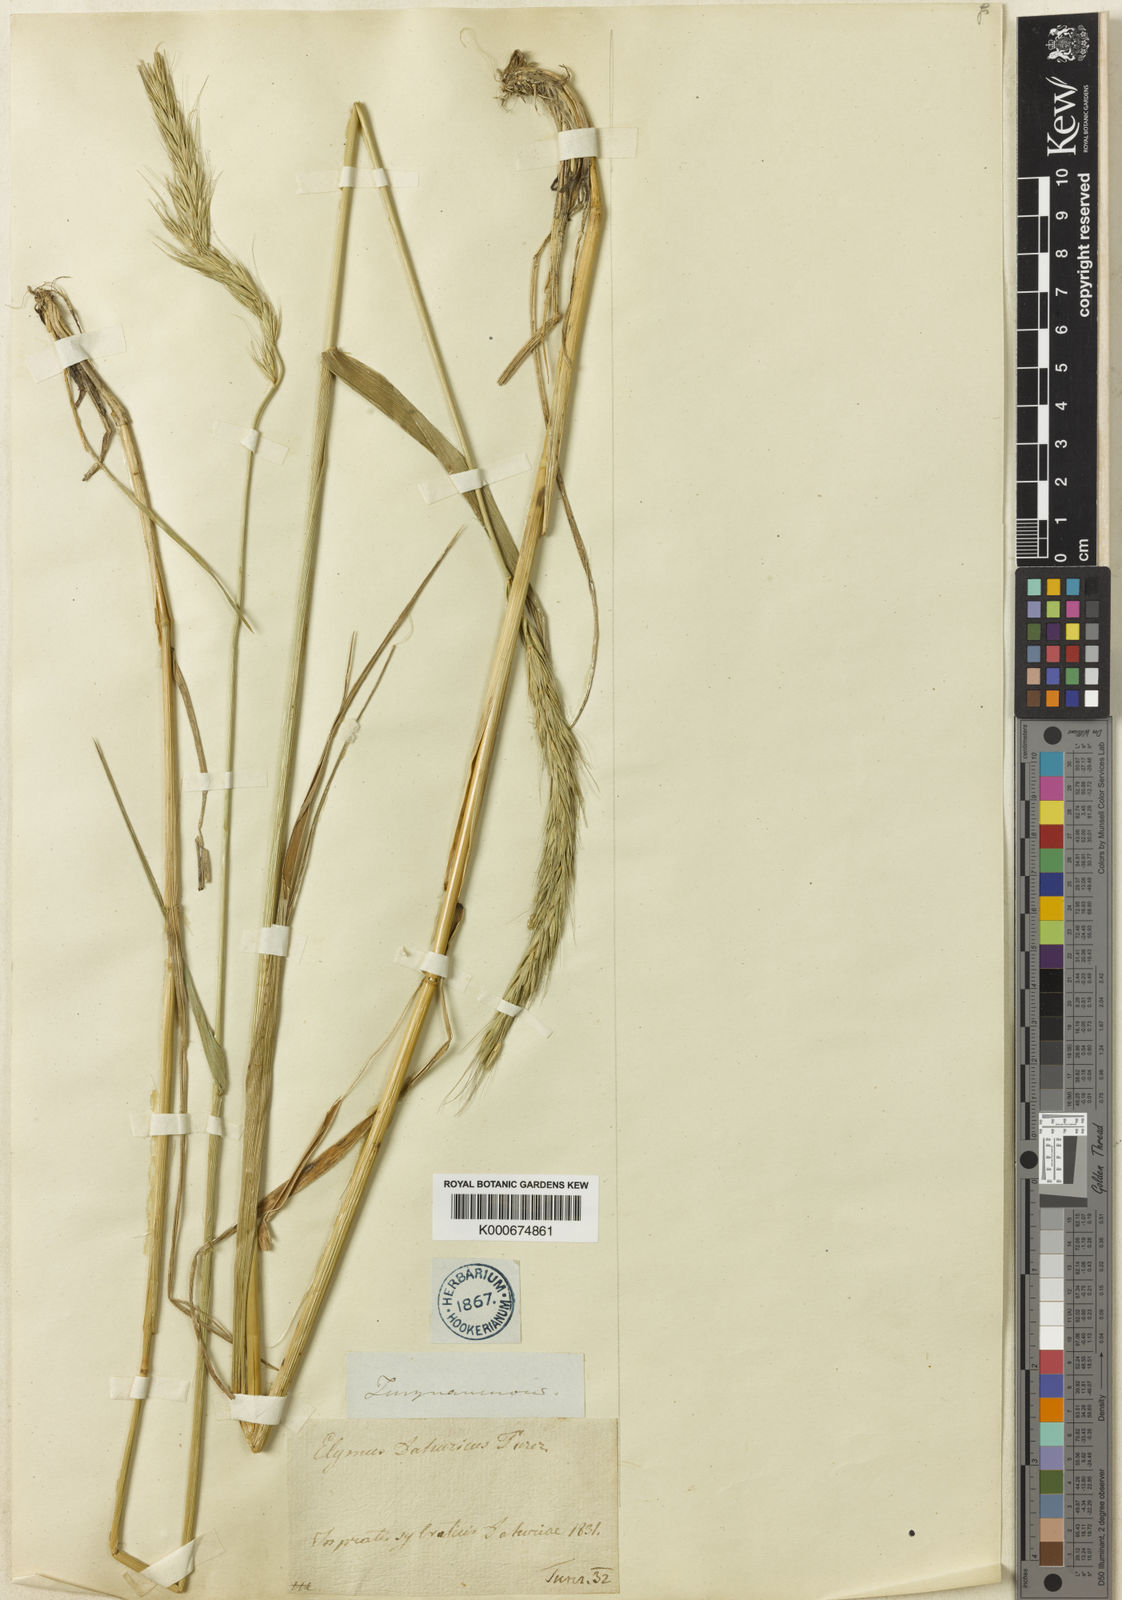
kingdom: Plantae
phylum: Tracheophyta
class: Liliopsida
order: Poales
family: Poaceae
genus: Elymus
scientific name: Elymus
